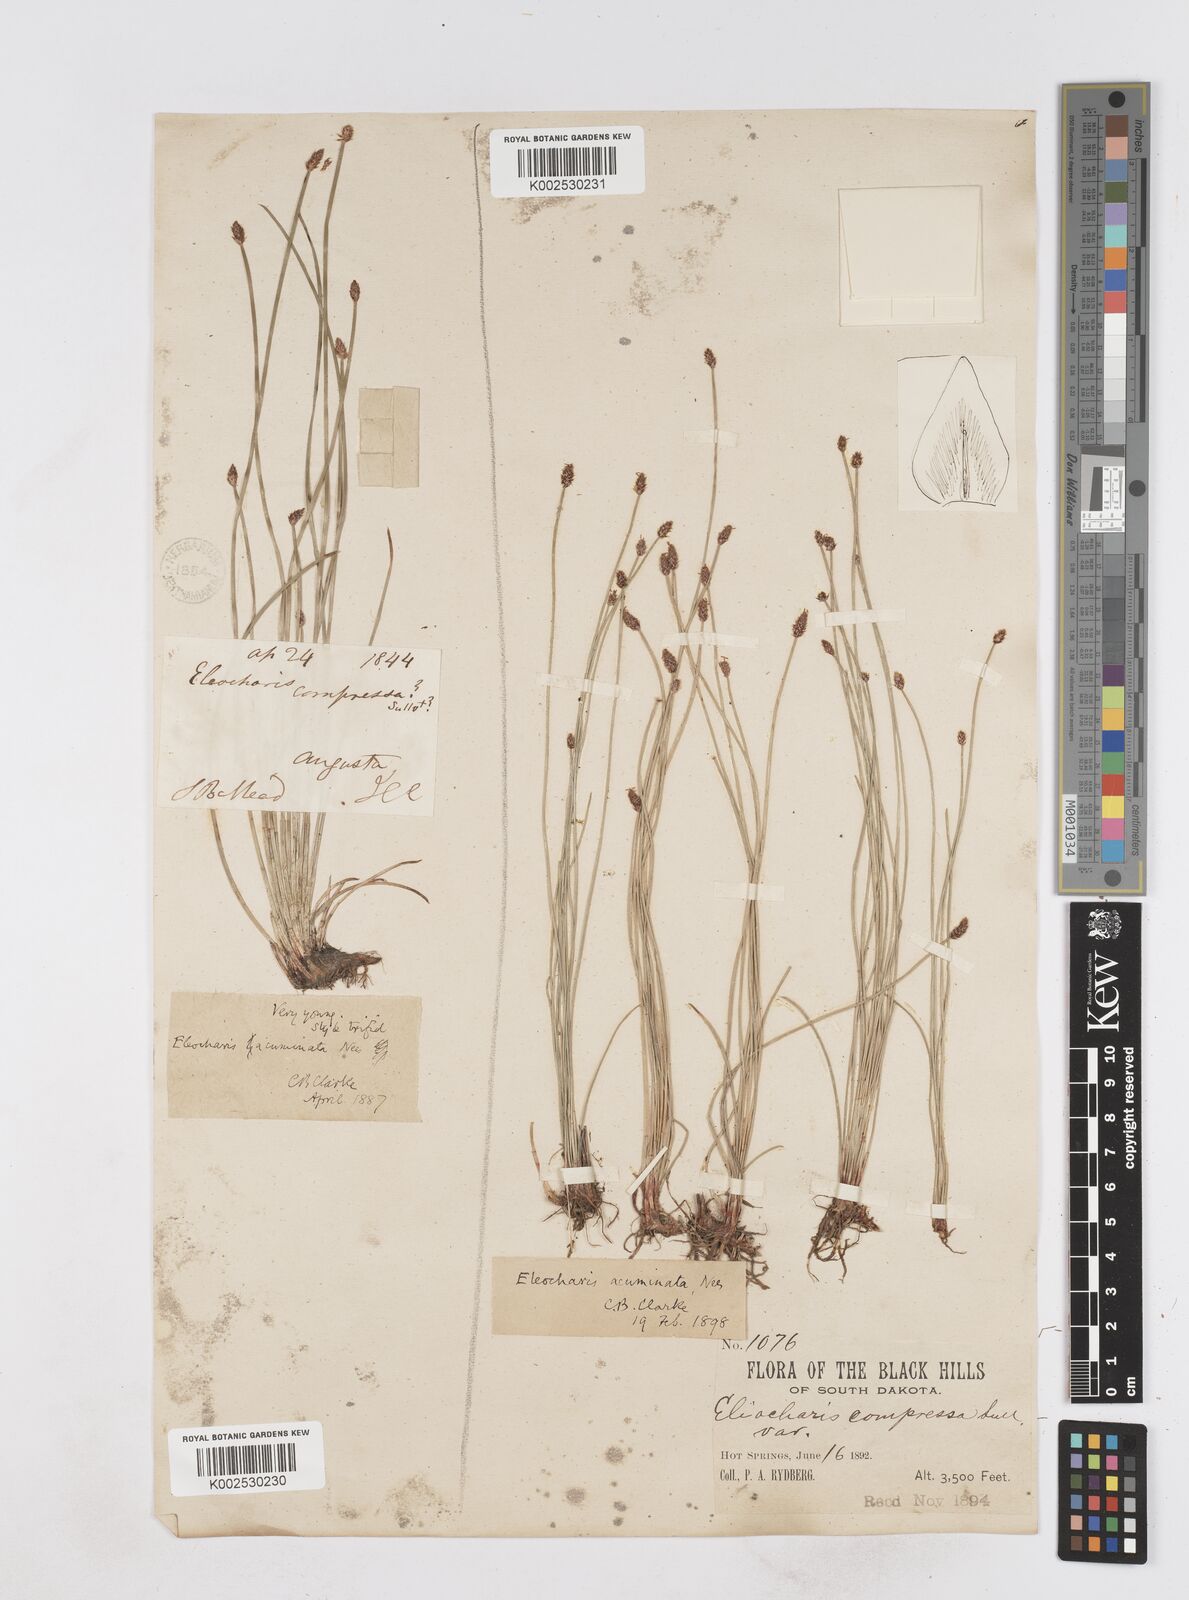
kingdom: Plantae
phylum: Tracheophyta
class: Liliopsida
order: Poales
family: Cyperaceae
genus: Eleocharis
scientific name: Eleocharis compressa
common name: Flat-stem spike-rush
